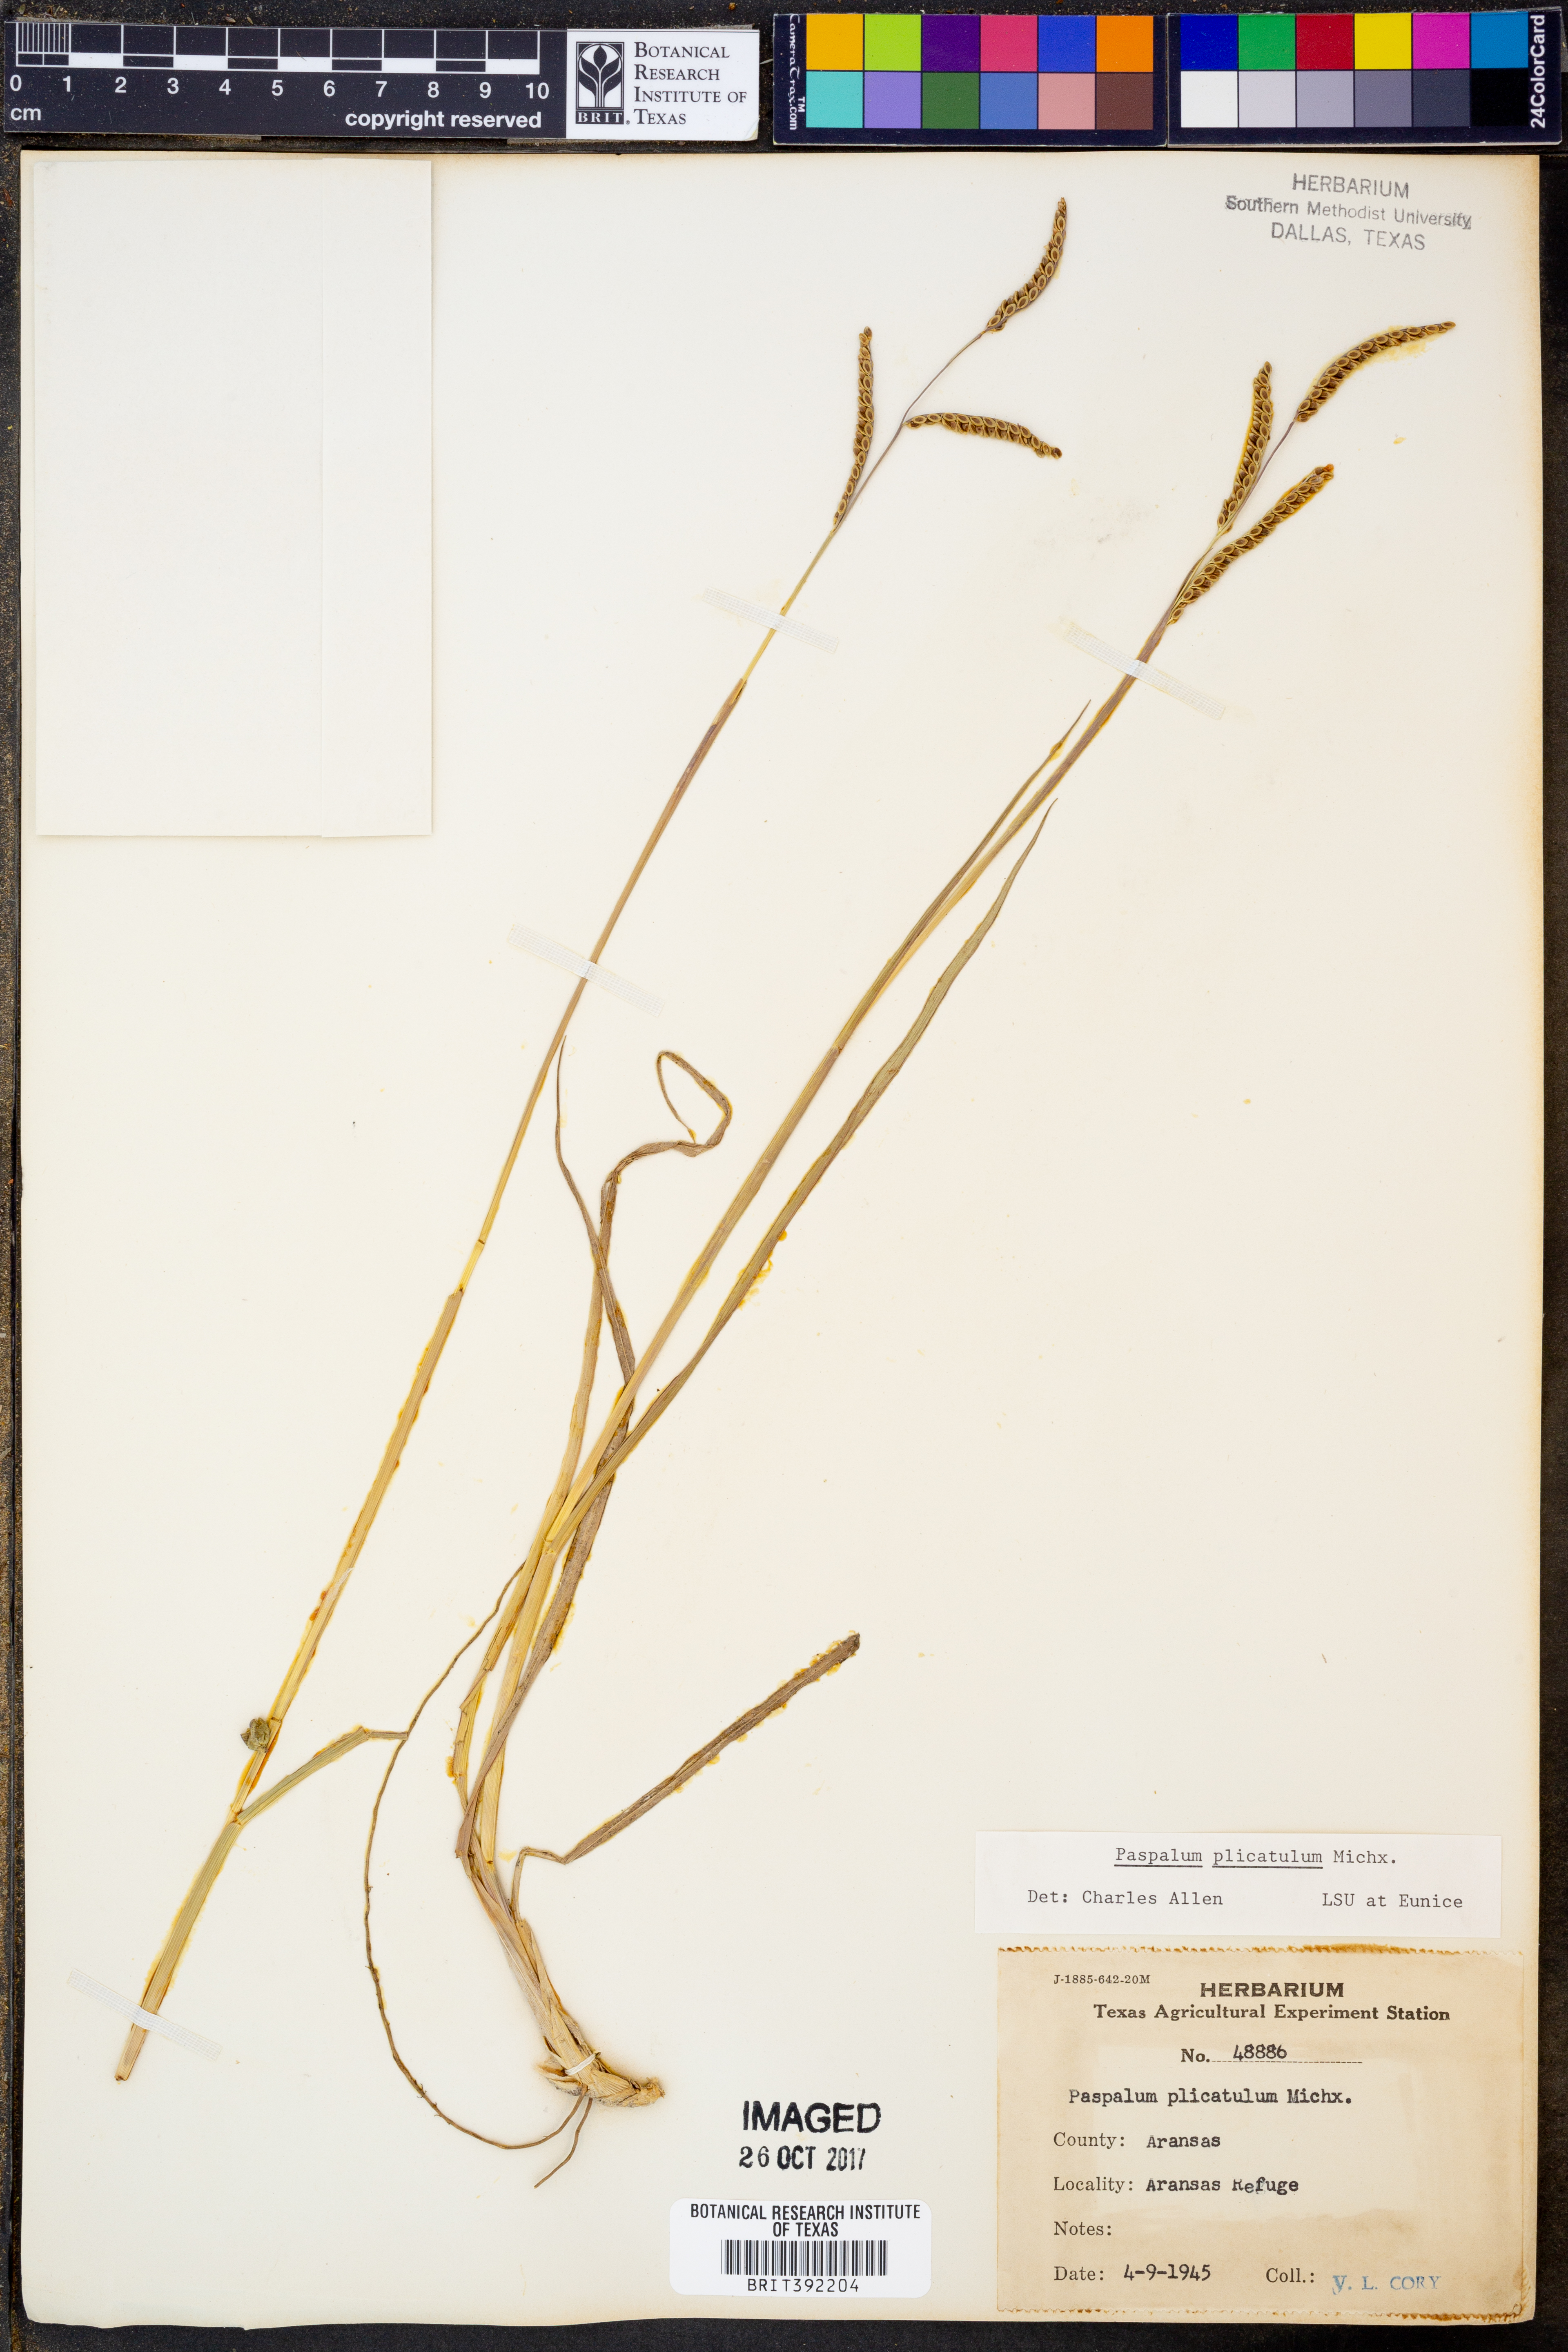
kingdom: Plantae
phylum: Tracheophyta
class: Liliopsida
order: Poales
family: Poaceae
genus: Paspalum
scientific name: Paspalum plicatulum
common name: Top paspalum
